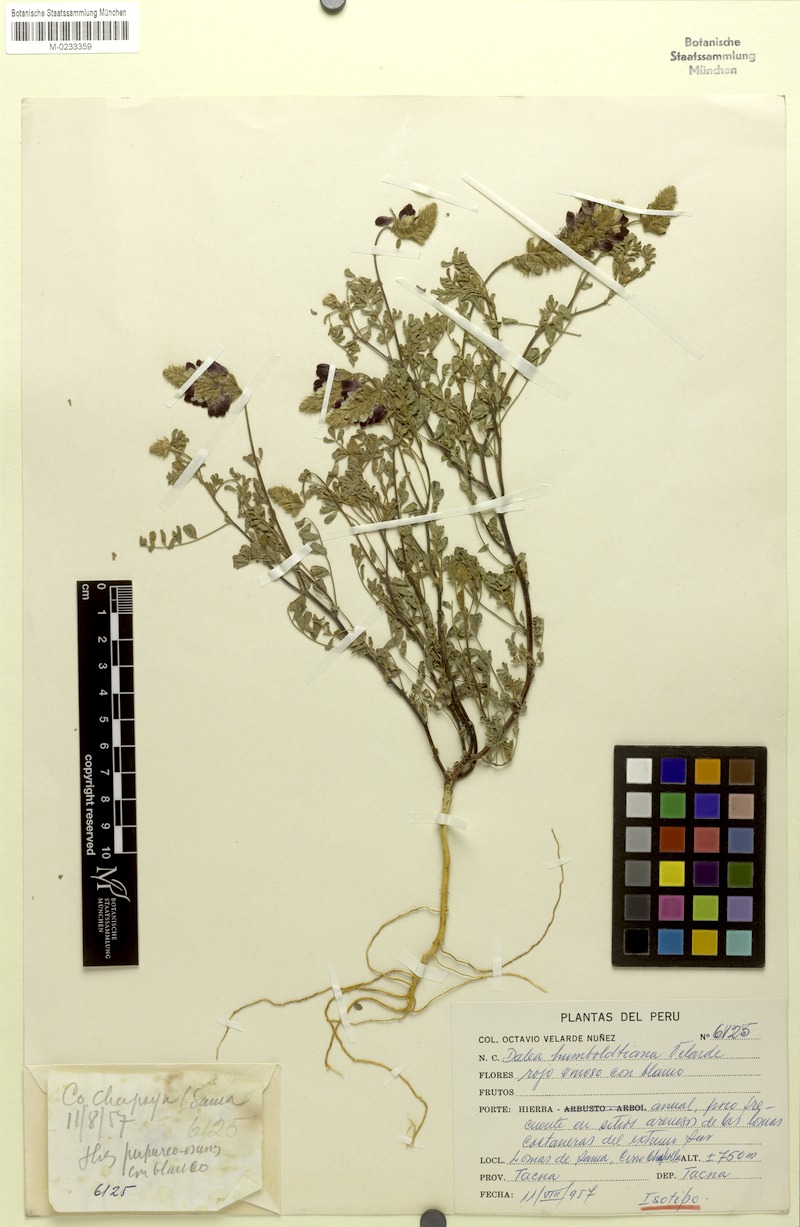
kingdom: Plantae
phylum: Tracheophyta
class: Magnoliopsida
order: Fabales
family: Fabaceae
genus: Dalea
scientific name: Dalea humboldtiana
